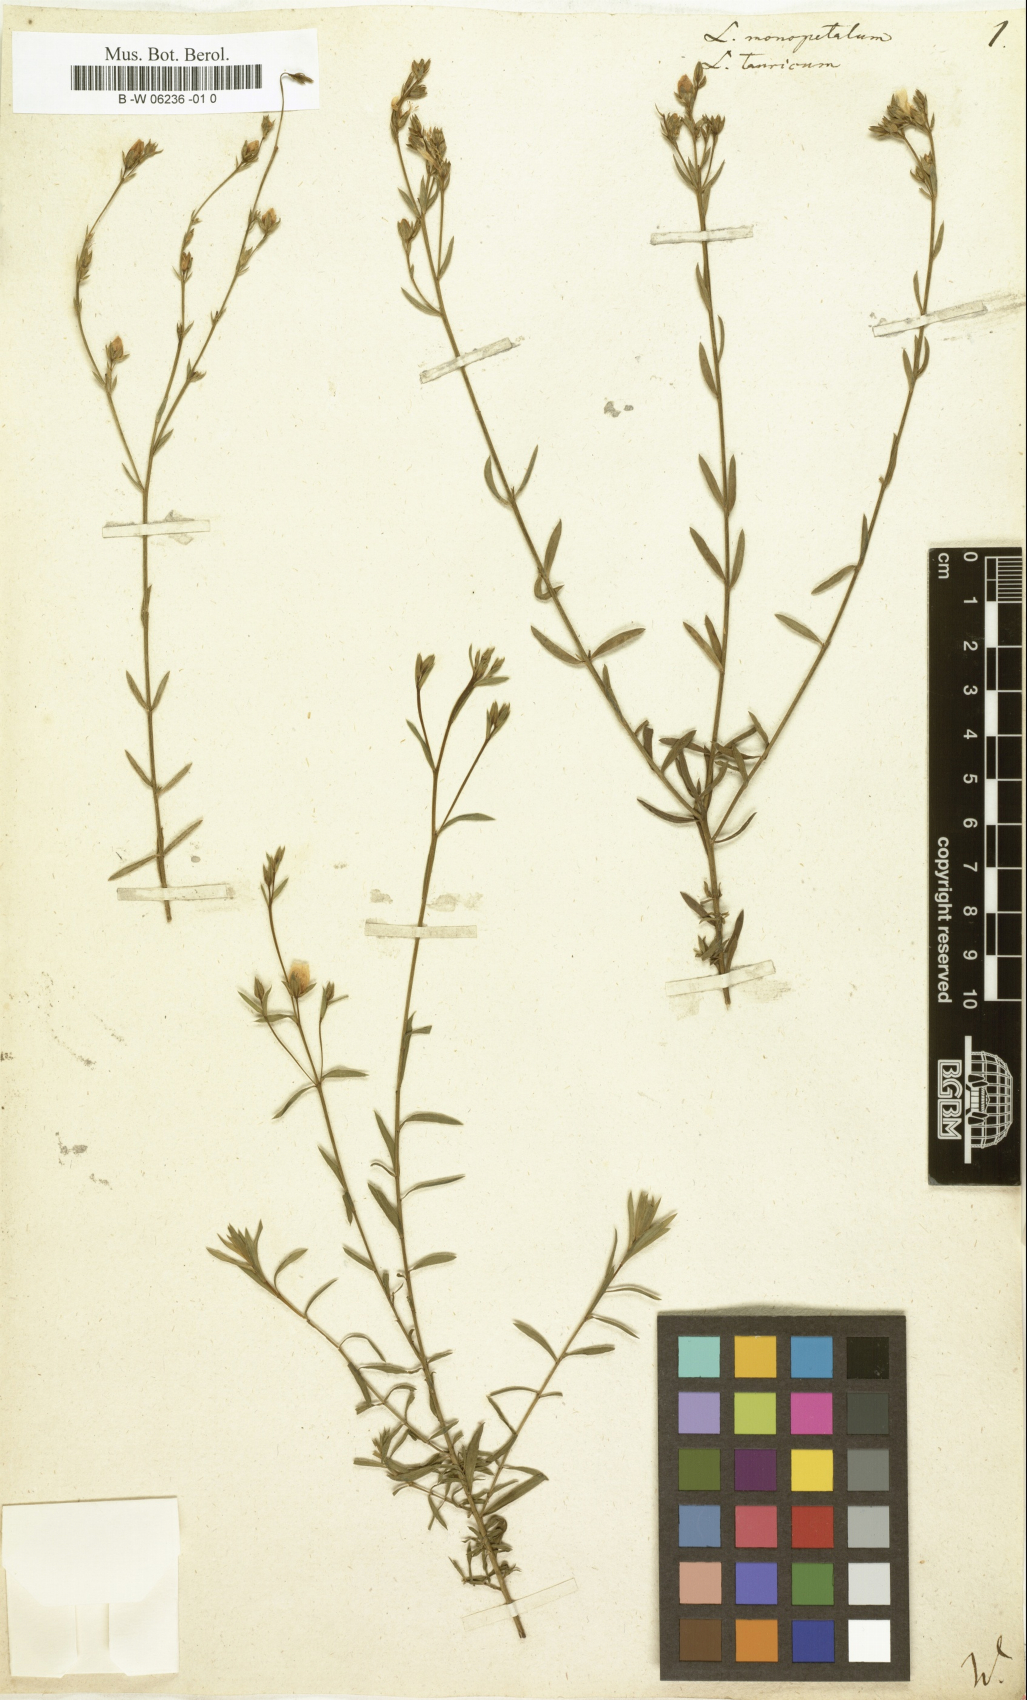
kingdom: Plantae
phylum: Tracheophyta
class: Magnoliopsida
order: Malpighiales
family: Linaceae
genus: Linum
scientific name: Linum monopetalum
